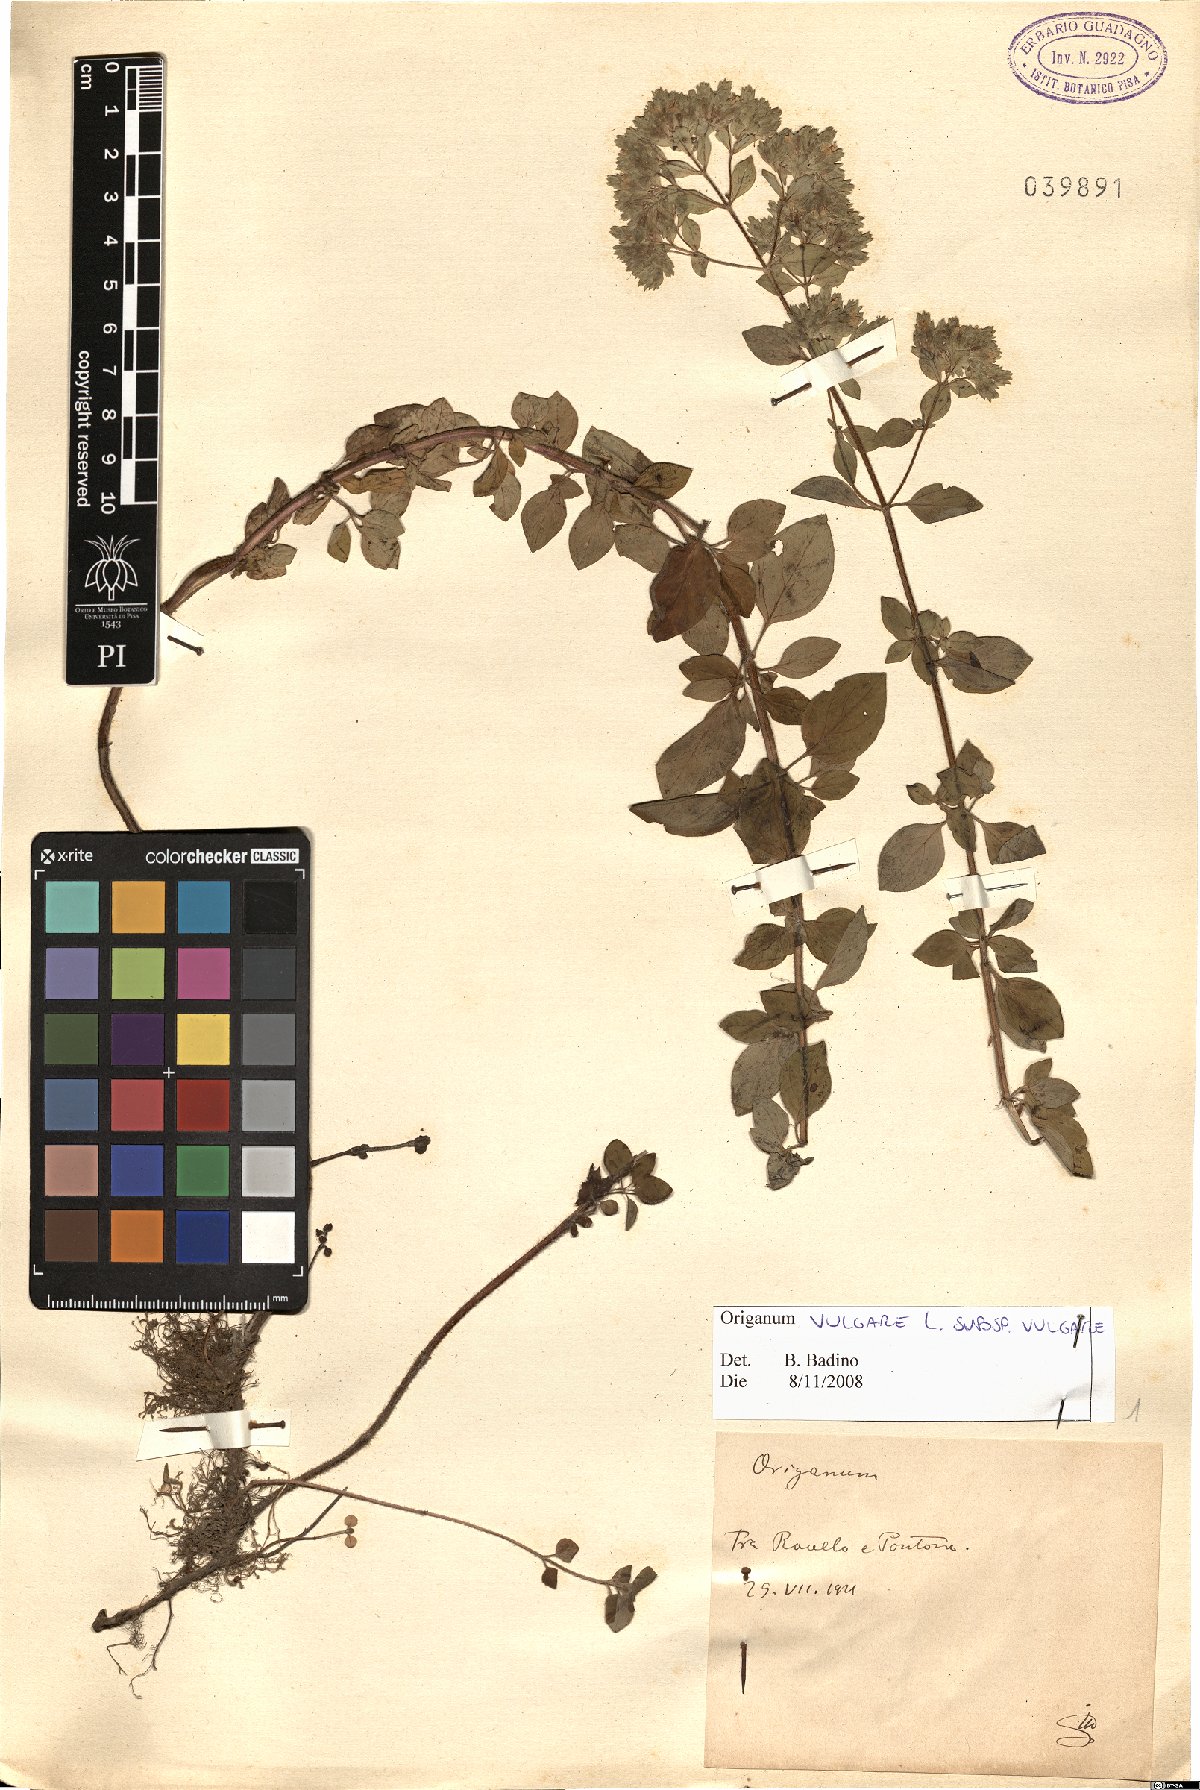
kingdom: Plantae
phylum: Tracheophyta
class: Magnoliopsida
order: Lamiales
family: Lamiaceae
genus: Origanum
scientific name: Origanum vulgare
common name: Wild marjoram
